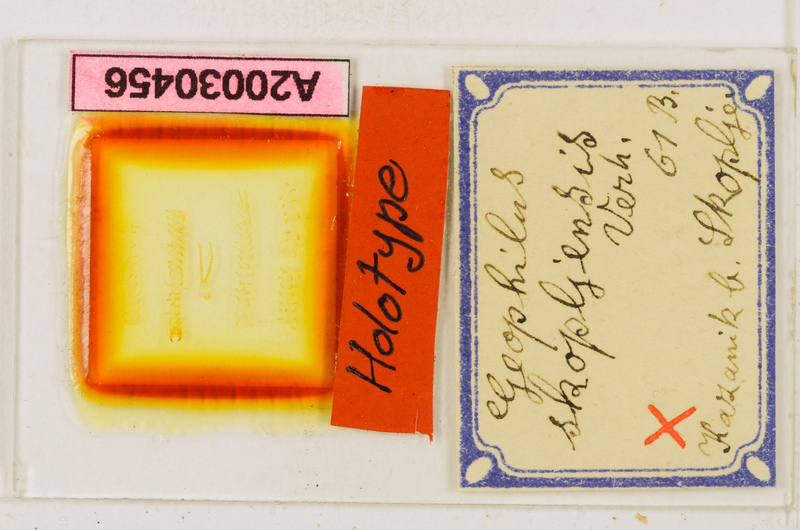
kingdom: Animalia
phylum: Arthropoda
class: Chilopoda
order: Geophilomorpha
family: Geophilidae
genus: Clinopodes
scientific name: Clinopodes trebevicensis
